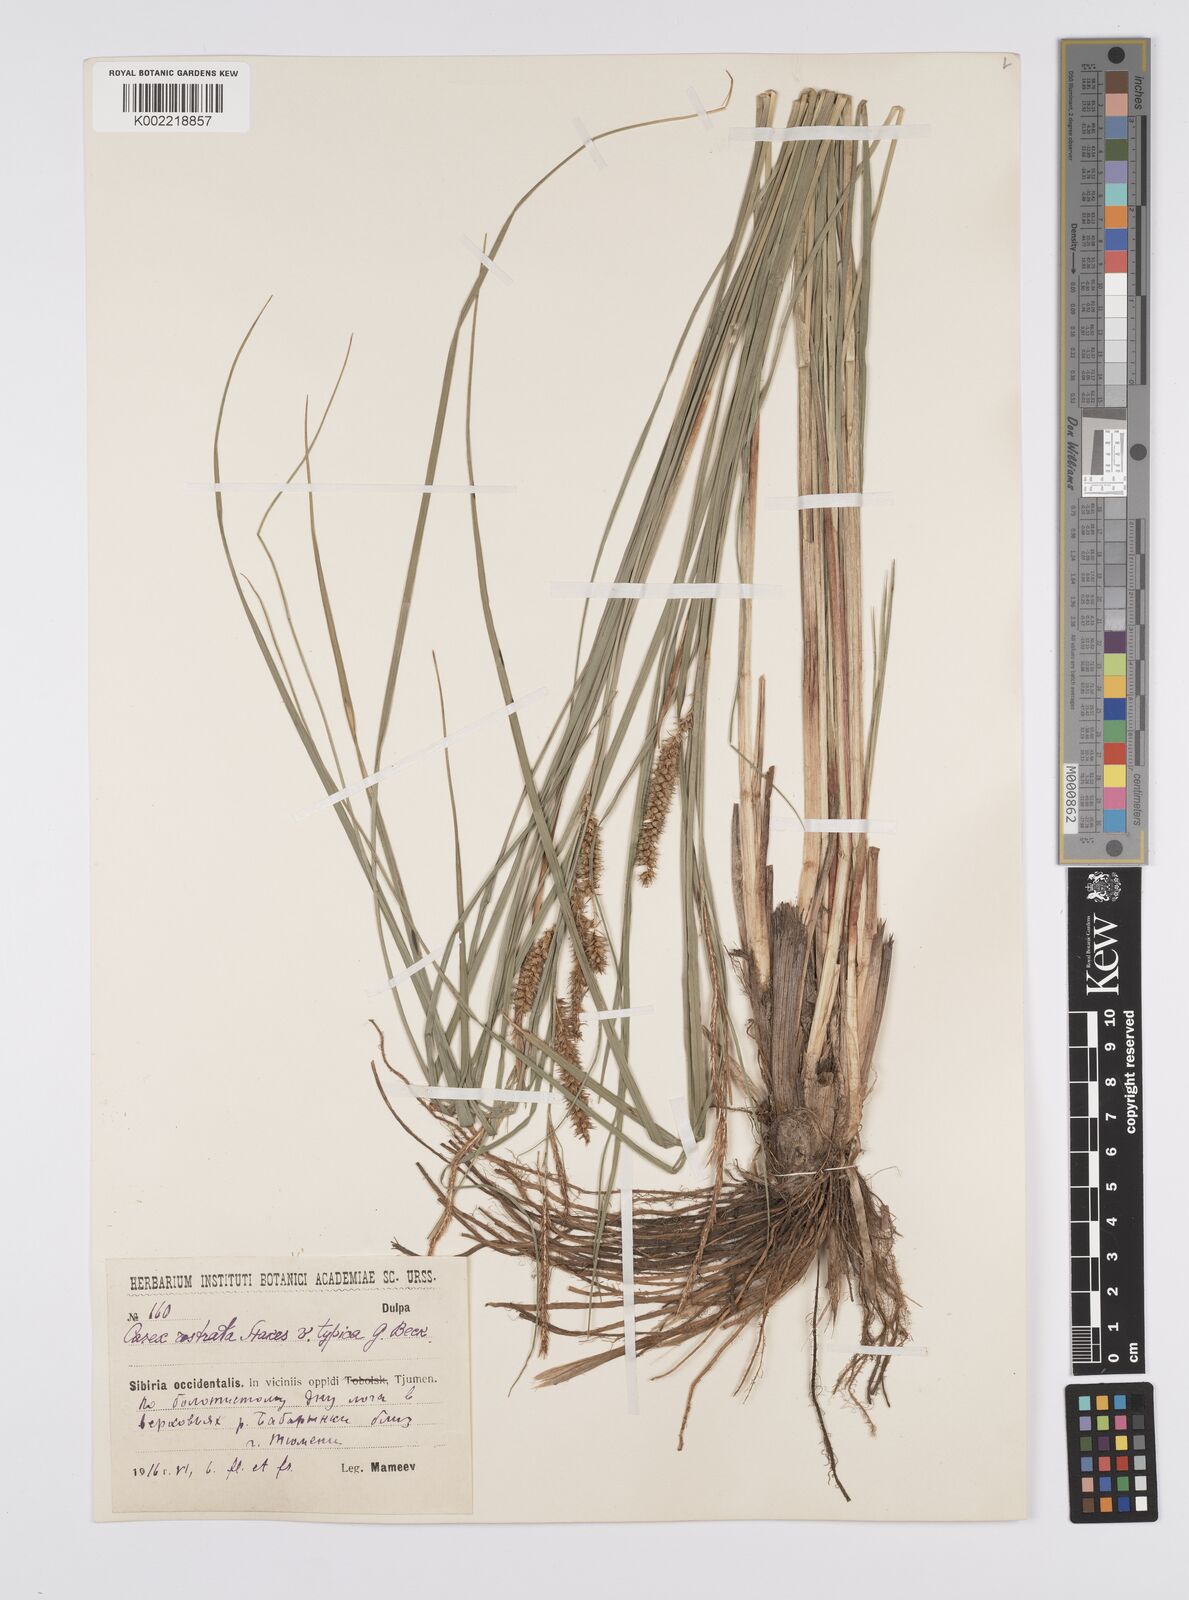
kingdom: Plantae
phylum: Tracheophyta
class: Liliopsida
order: Poales
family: Cyperaceae
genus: Carex
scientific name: Carex michauxiana
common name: Michaux's sedge
